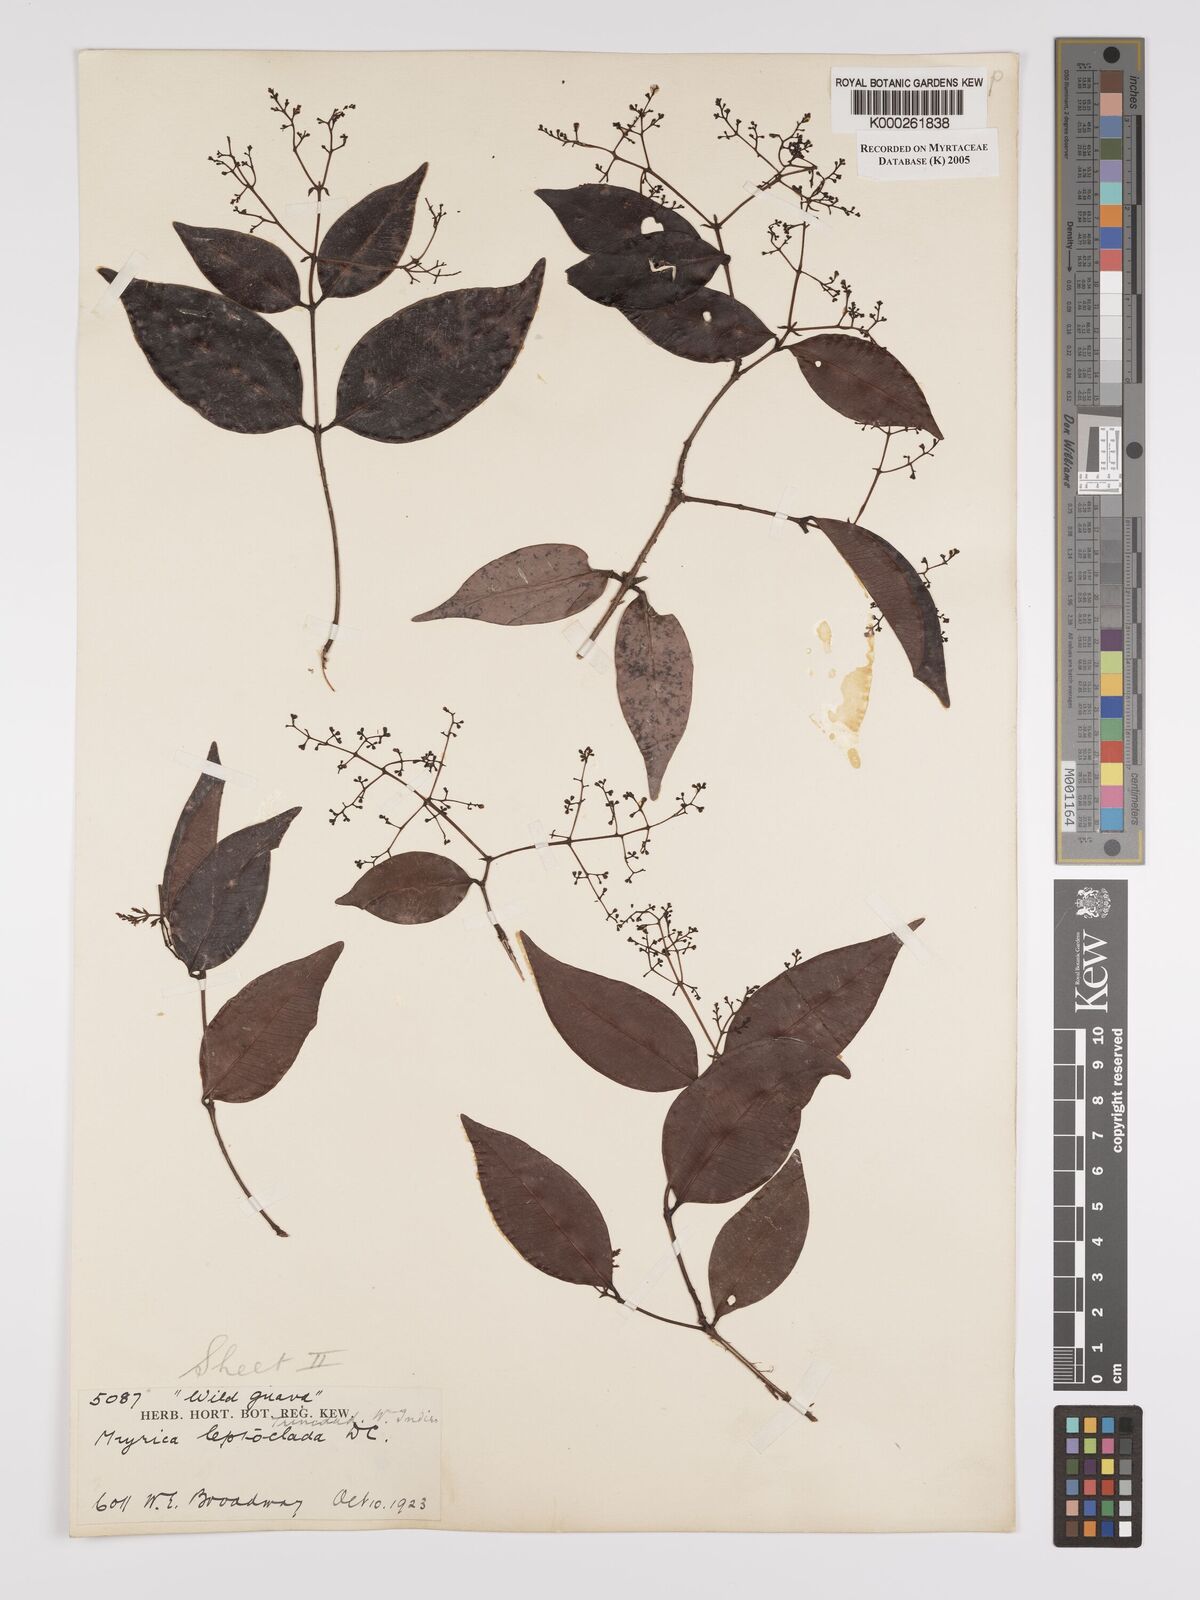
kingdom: Plantae
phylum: Tracheophyta
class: Magnoliopsida
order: Myrtales
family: Myrtaceae
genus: Myrcia
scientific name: Myrcia amazonica
